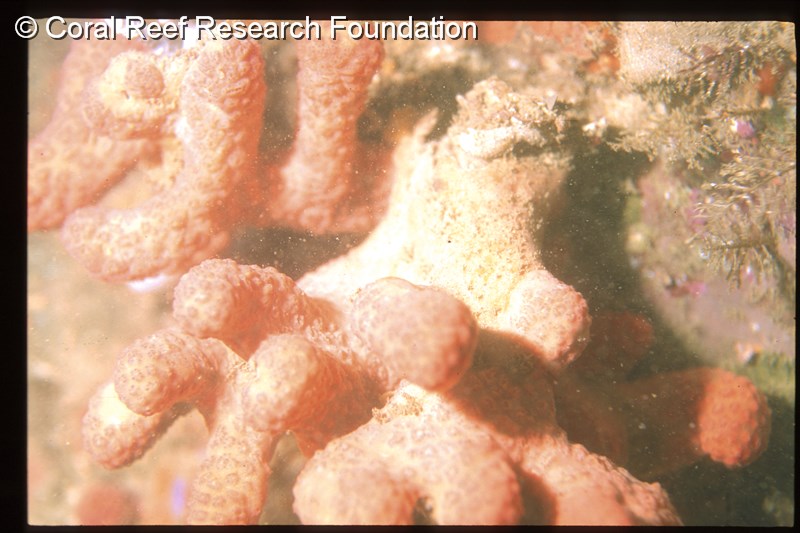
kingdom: Animalia
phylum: Chordata
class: Ascidiacea
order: Aplousobranchia
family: Polyclinidae
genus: Aplidium
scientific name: Aplidium
